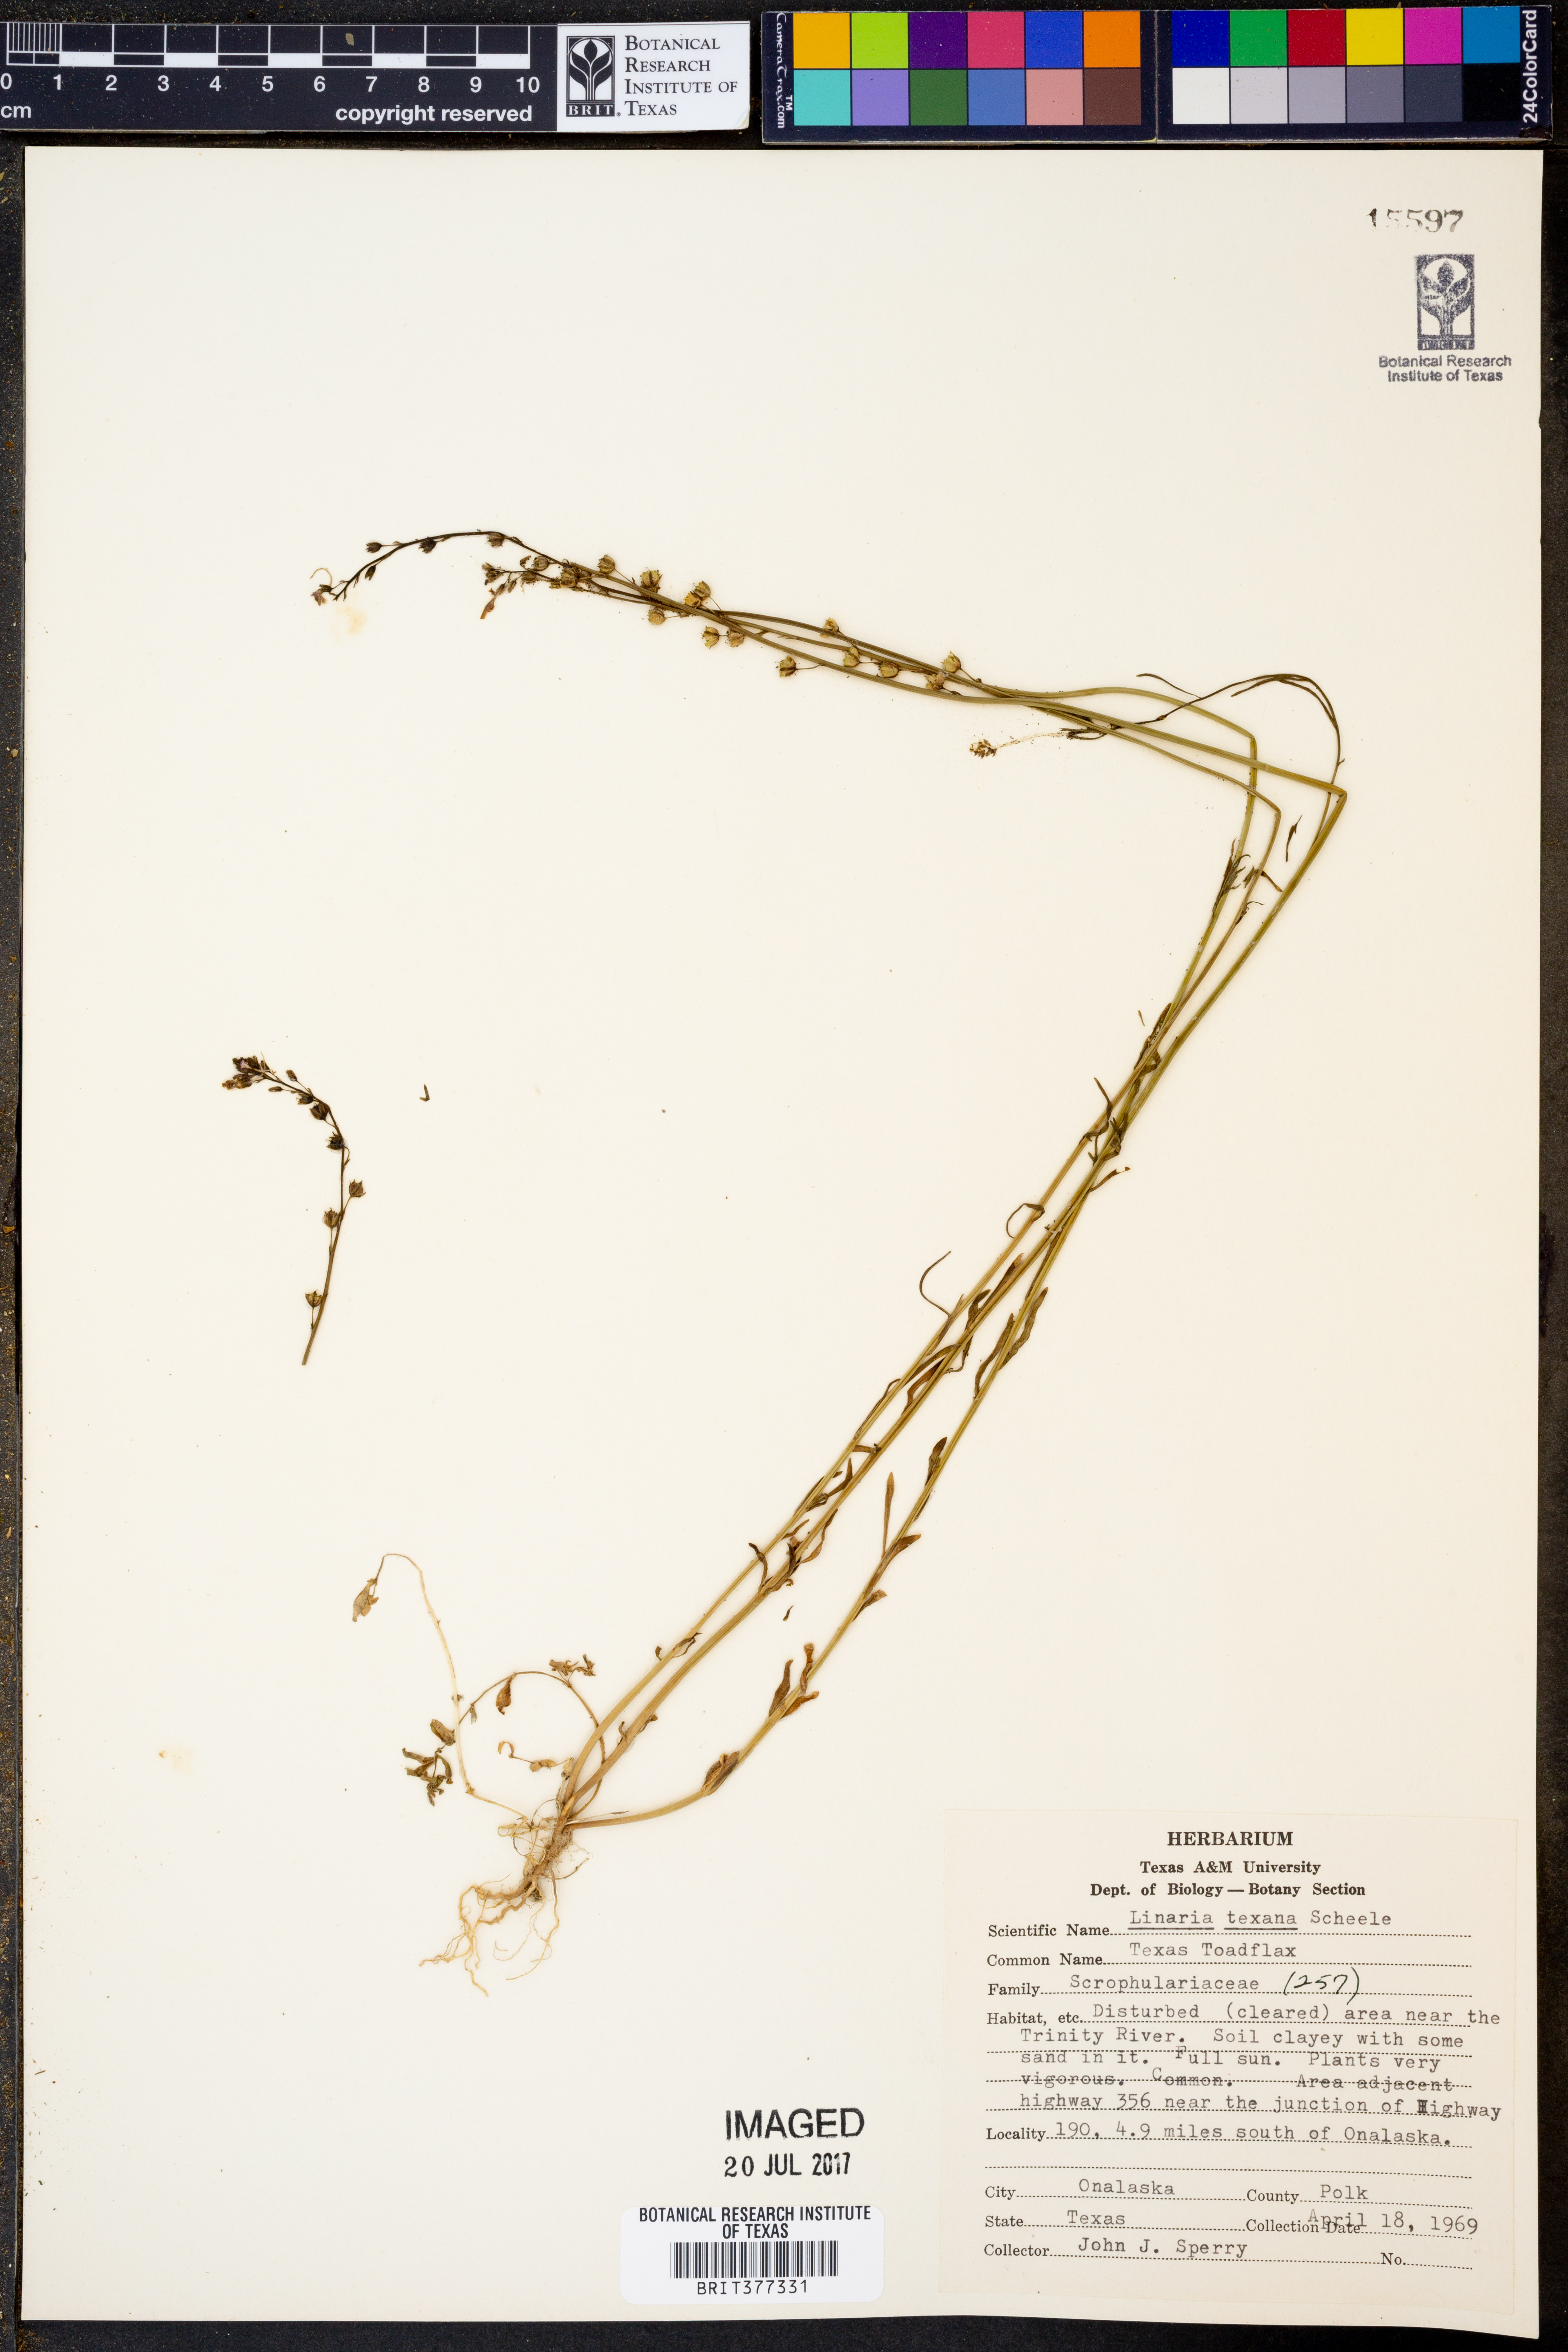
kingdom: Plantae
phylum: Tracheophyta
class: Magnoliopsida
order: Lamiales
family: Plantaginaceae
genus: Nuttallanthus
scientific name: Nuttallanthus texanus
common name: Texas toadflax
